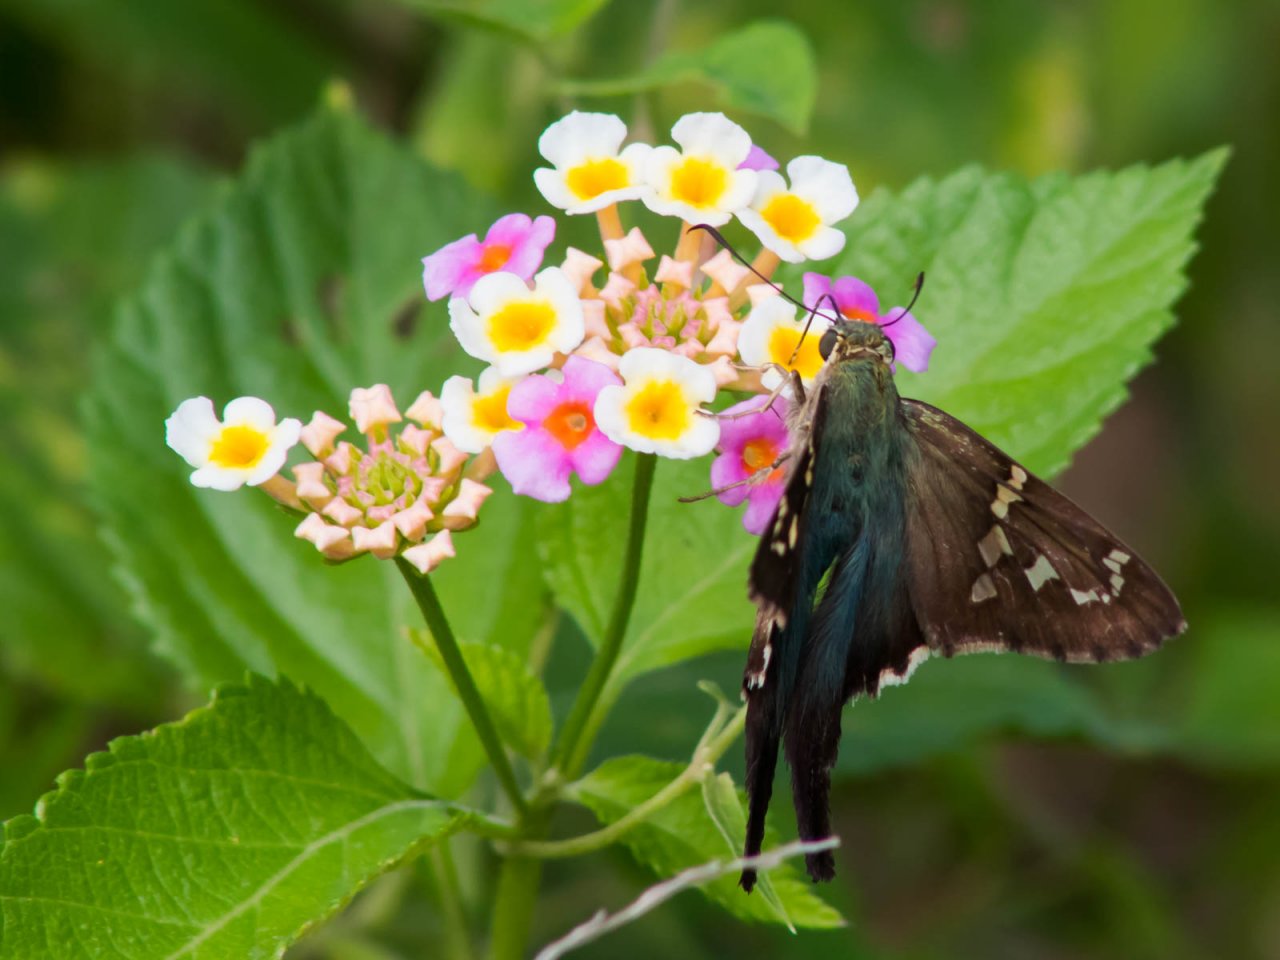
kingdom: Animalia
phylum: Arthropoda
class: Insecta
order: Lepidoptera
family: Hesperiidae
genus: Urbanus
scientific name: Urbanus proteus
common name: Long-tailed Skipper
